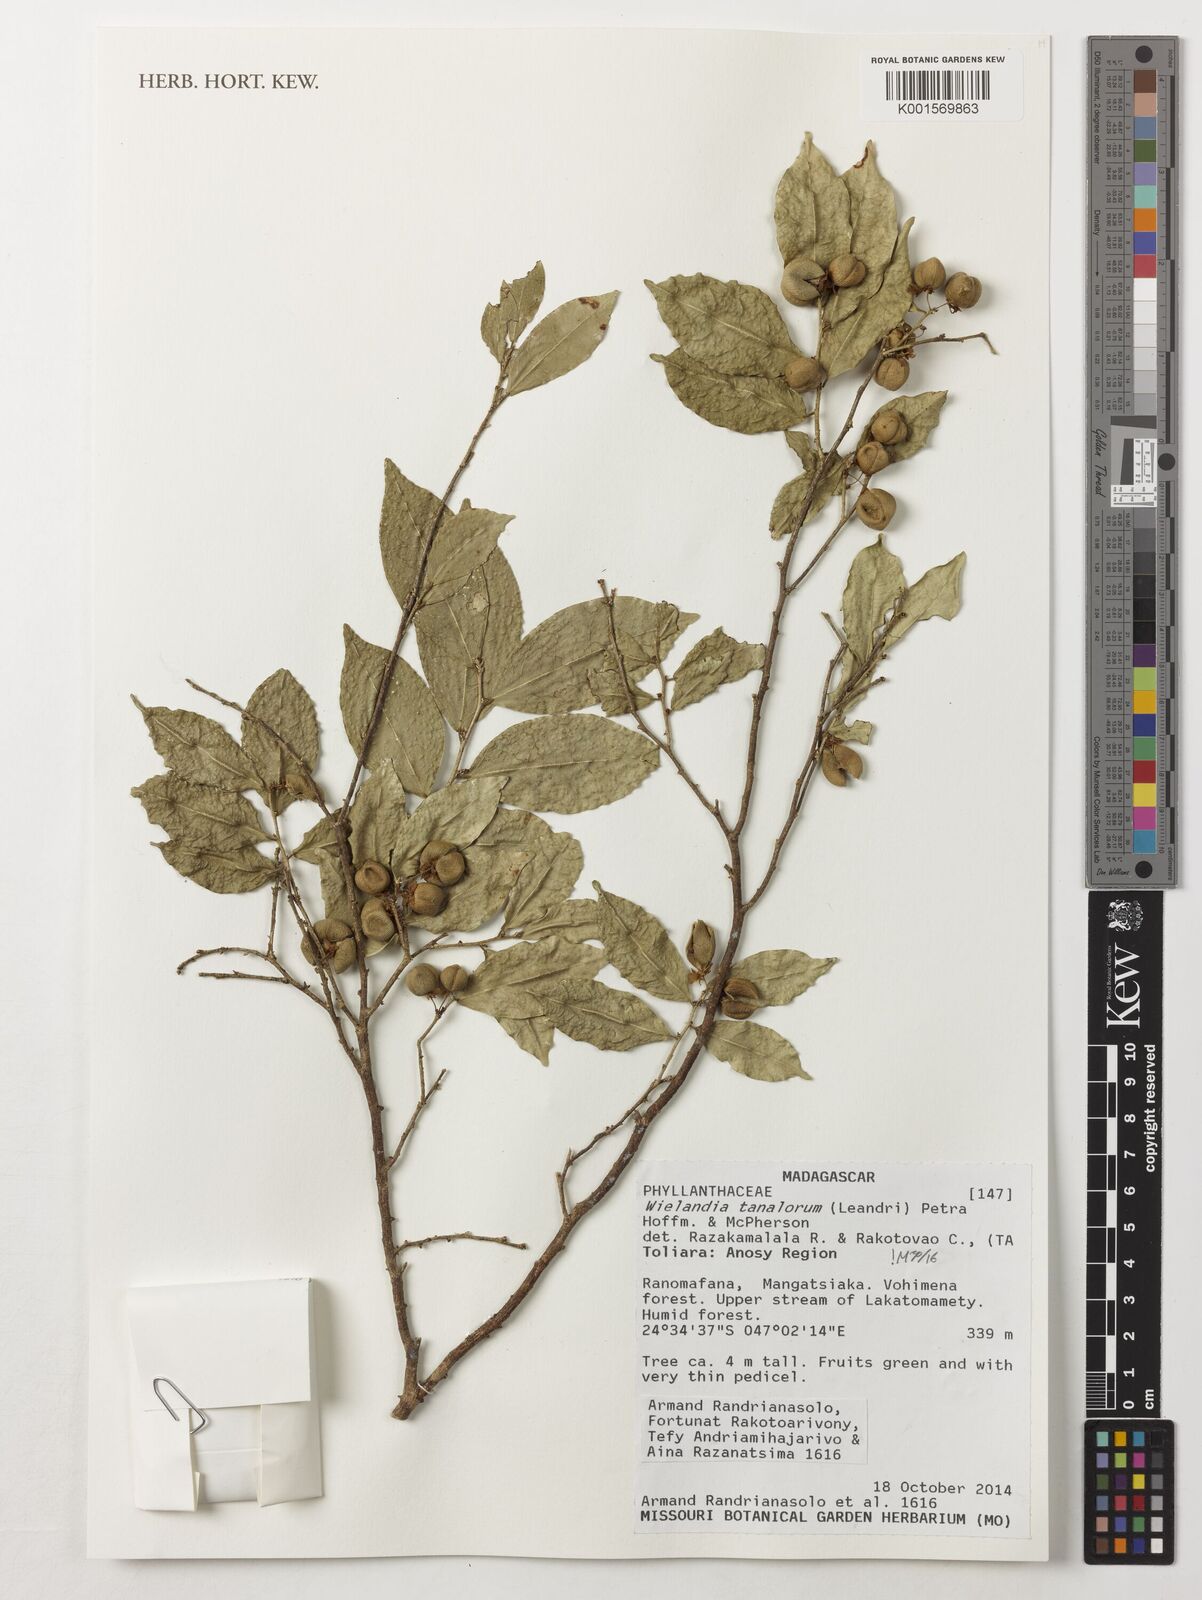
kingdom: Plantae
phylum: Tracheophyta
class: Magnoliopsida
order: Malpighiales
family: Phyllanthaceae
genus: Wielandia
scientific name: Wielandia tanalorum
